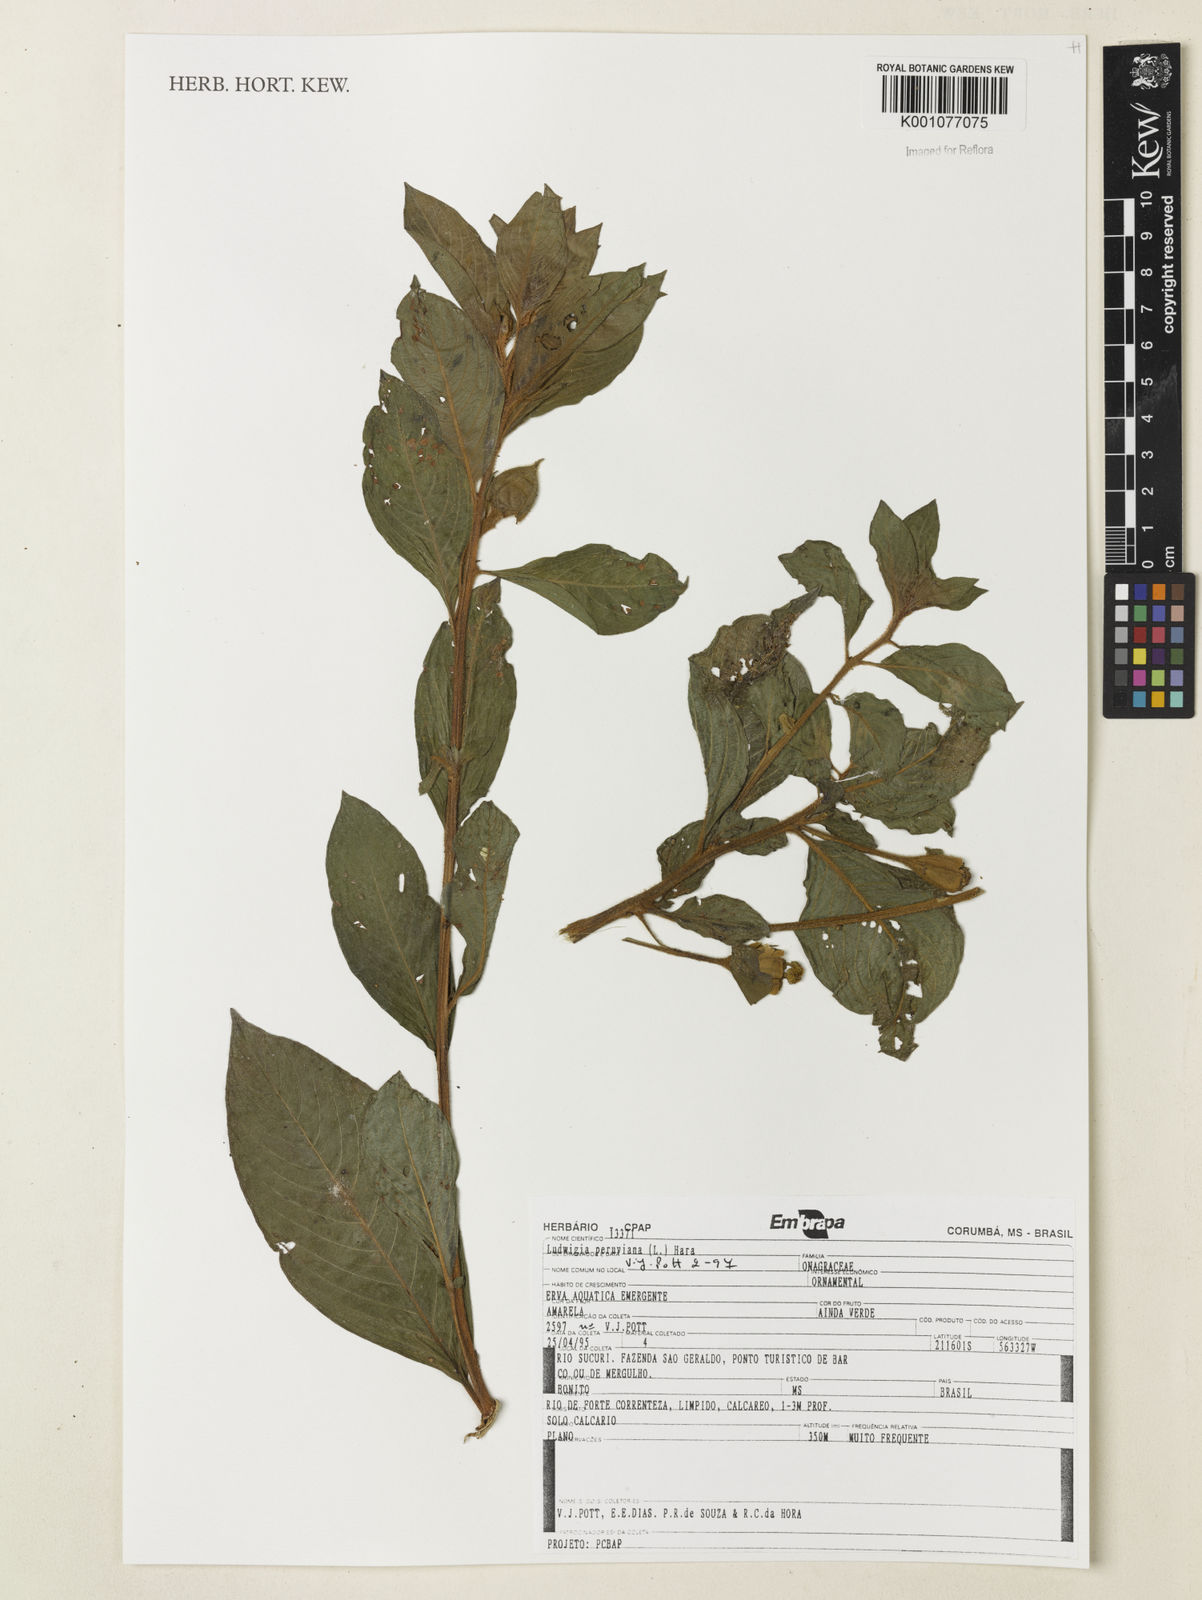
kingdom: Plantae
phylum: Tracheophyta
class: Magnoliopsida
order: Myrtales
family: Onagraceae
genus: Ludwigia
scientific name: Ludwigia peruviana
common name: Peruvian primrose-willow
